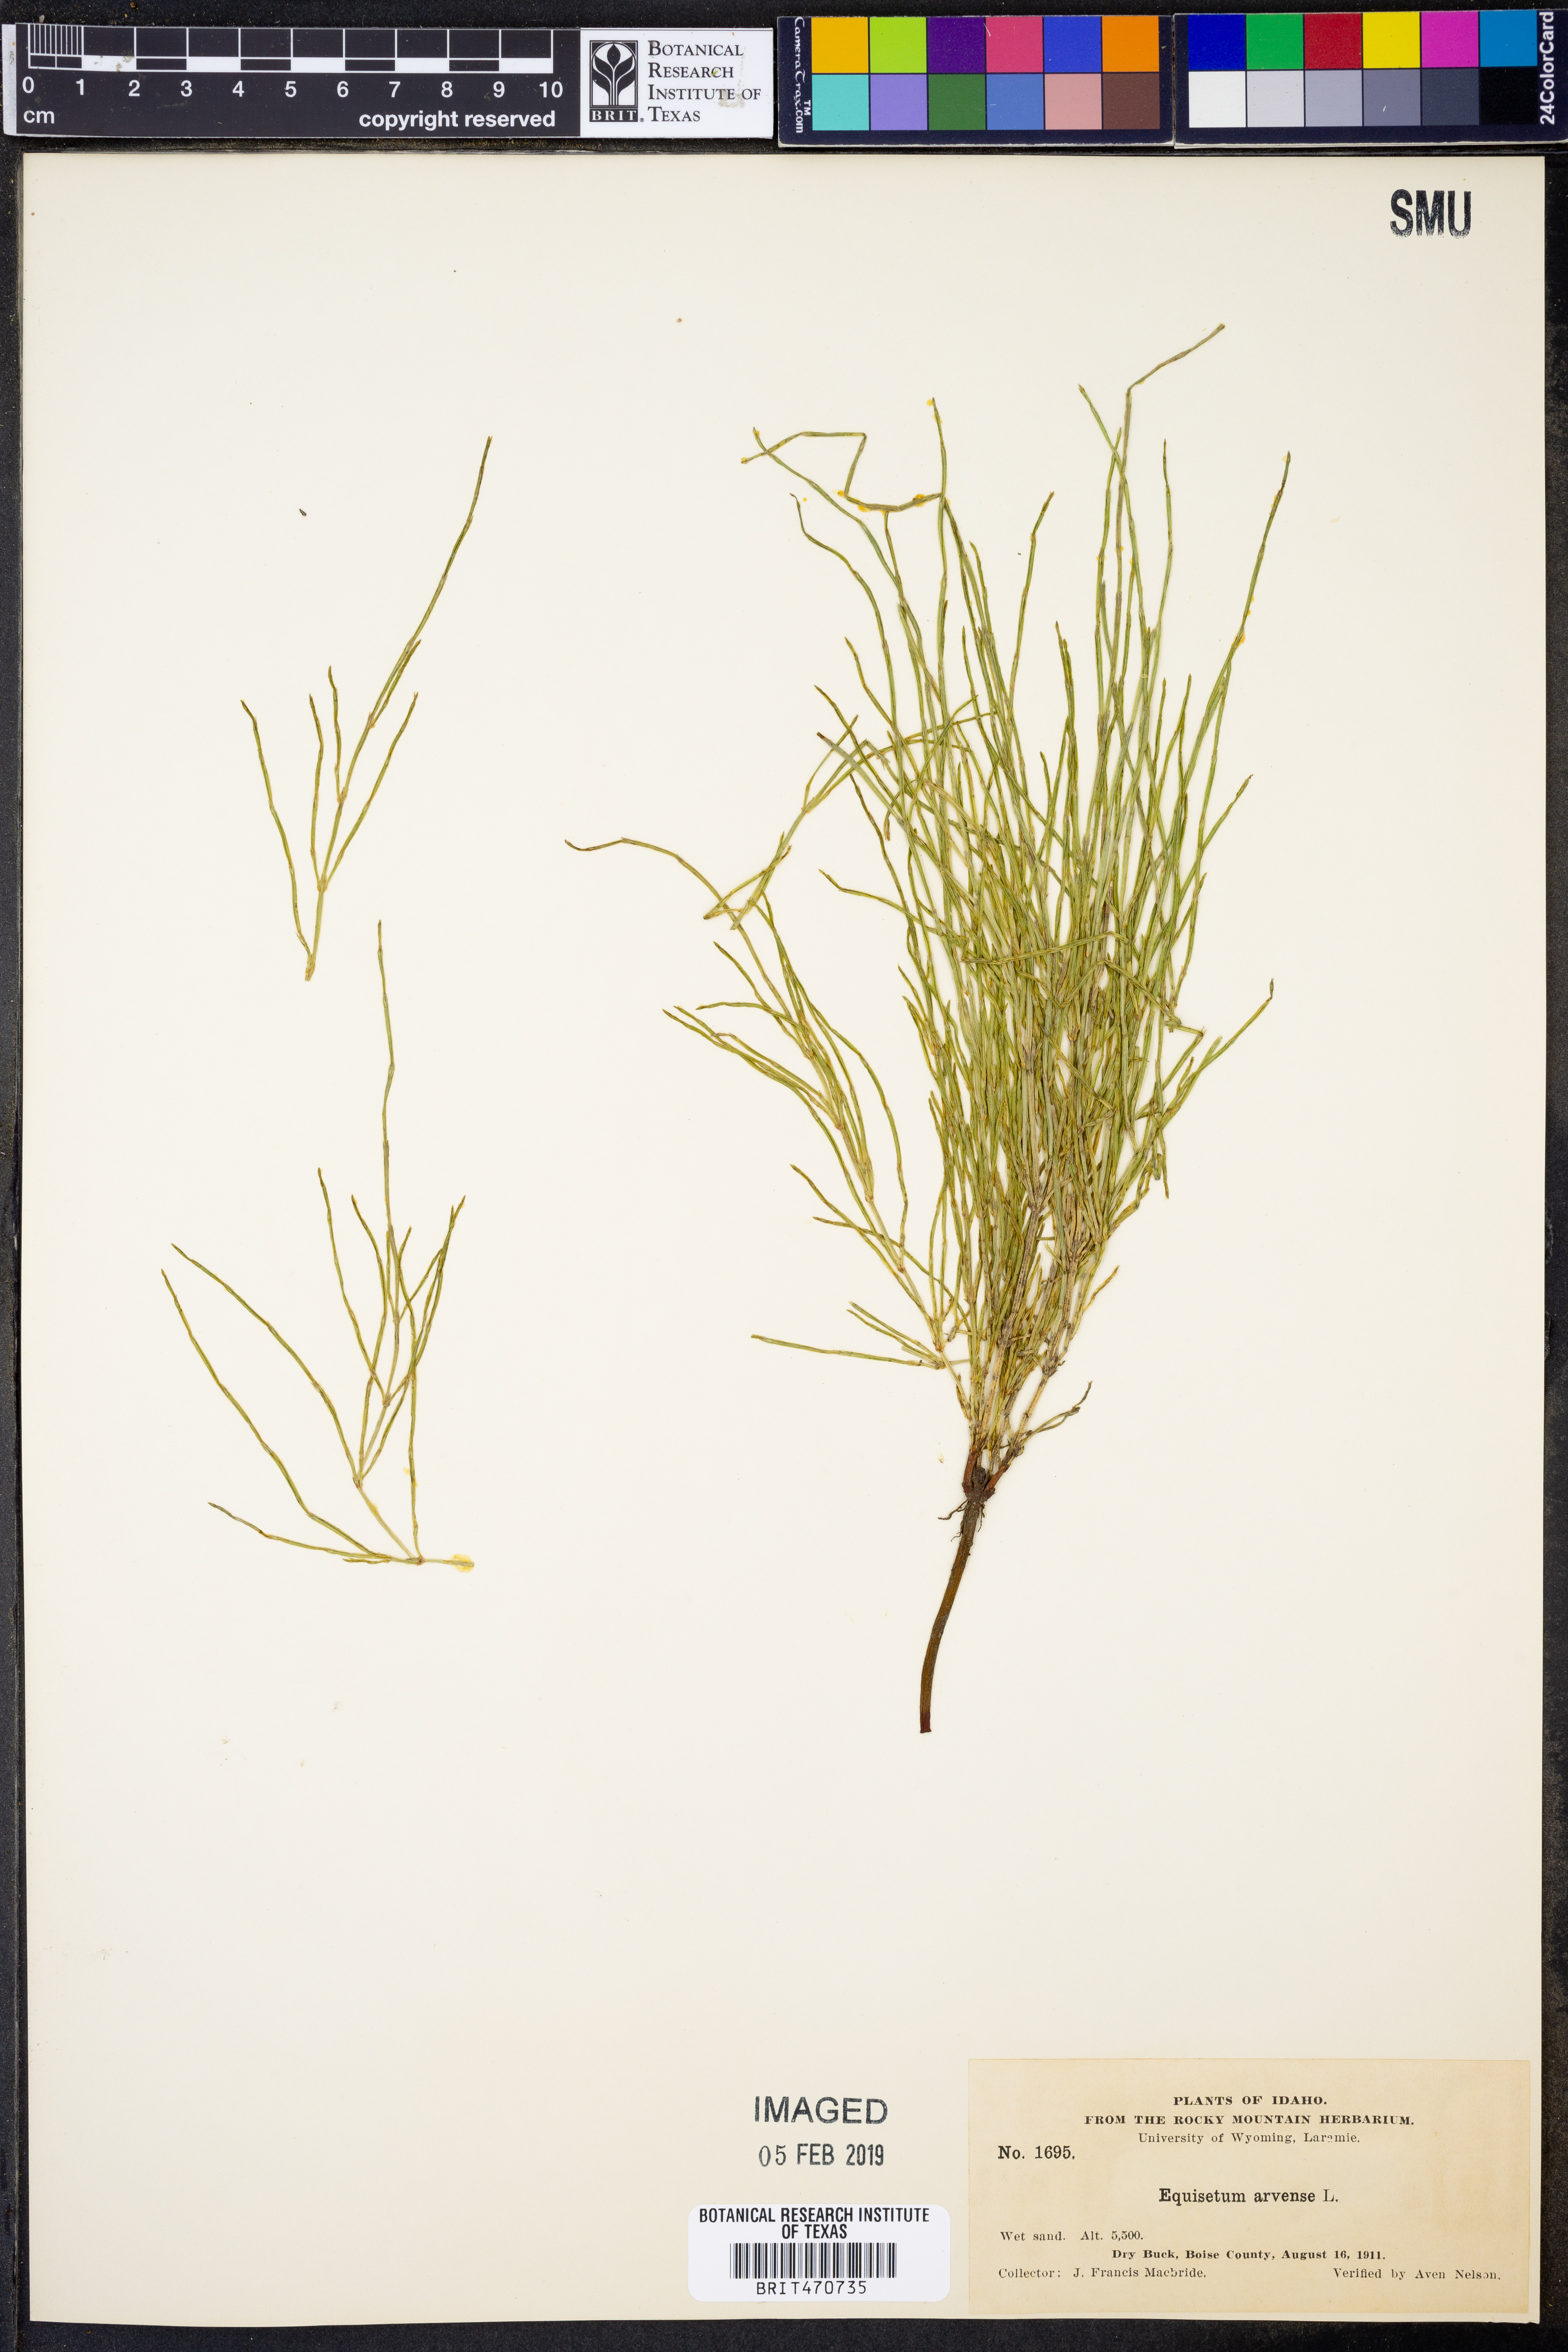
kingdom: Plantae
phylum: Tracheophyta
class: Polypodiopsida
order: Equisetales
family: Equisetaceae
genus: Equisetum
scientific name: Equisetum arvense
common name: Field horsetail
